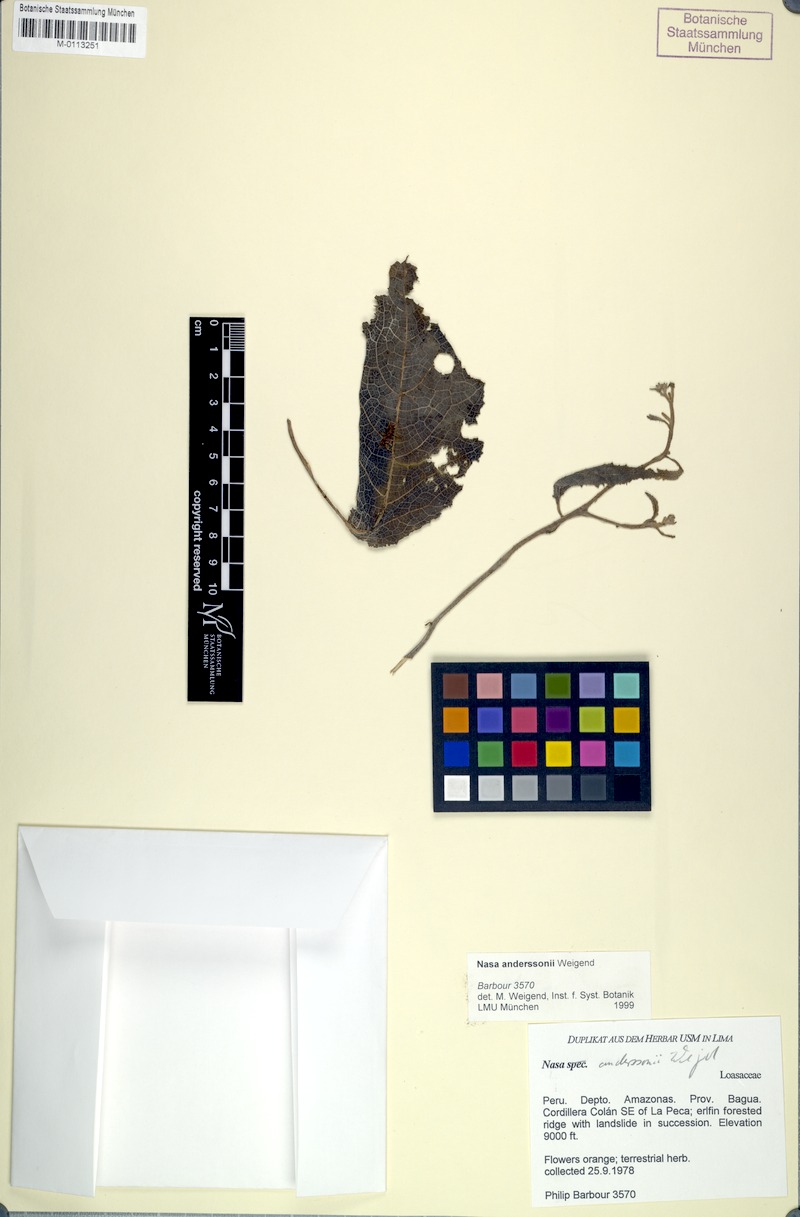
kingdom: Plantae
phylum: Tracheophyta
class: Magnoliopsida
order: Cornales
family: Loasaceae
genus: Nasa
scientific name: Nasa anderssonii
